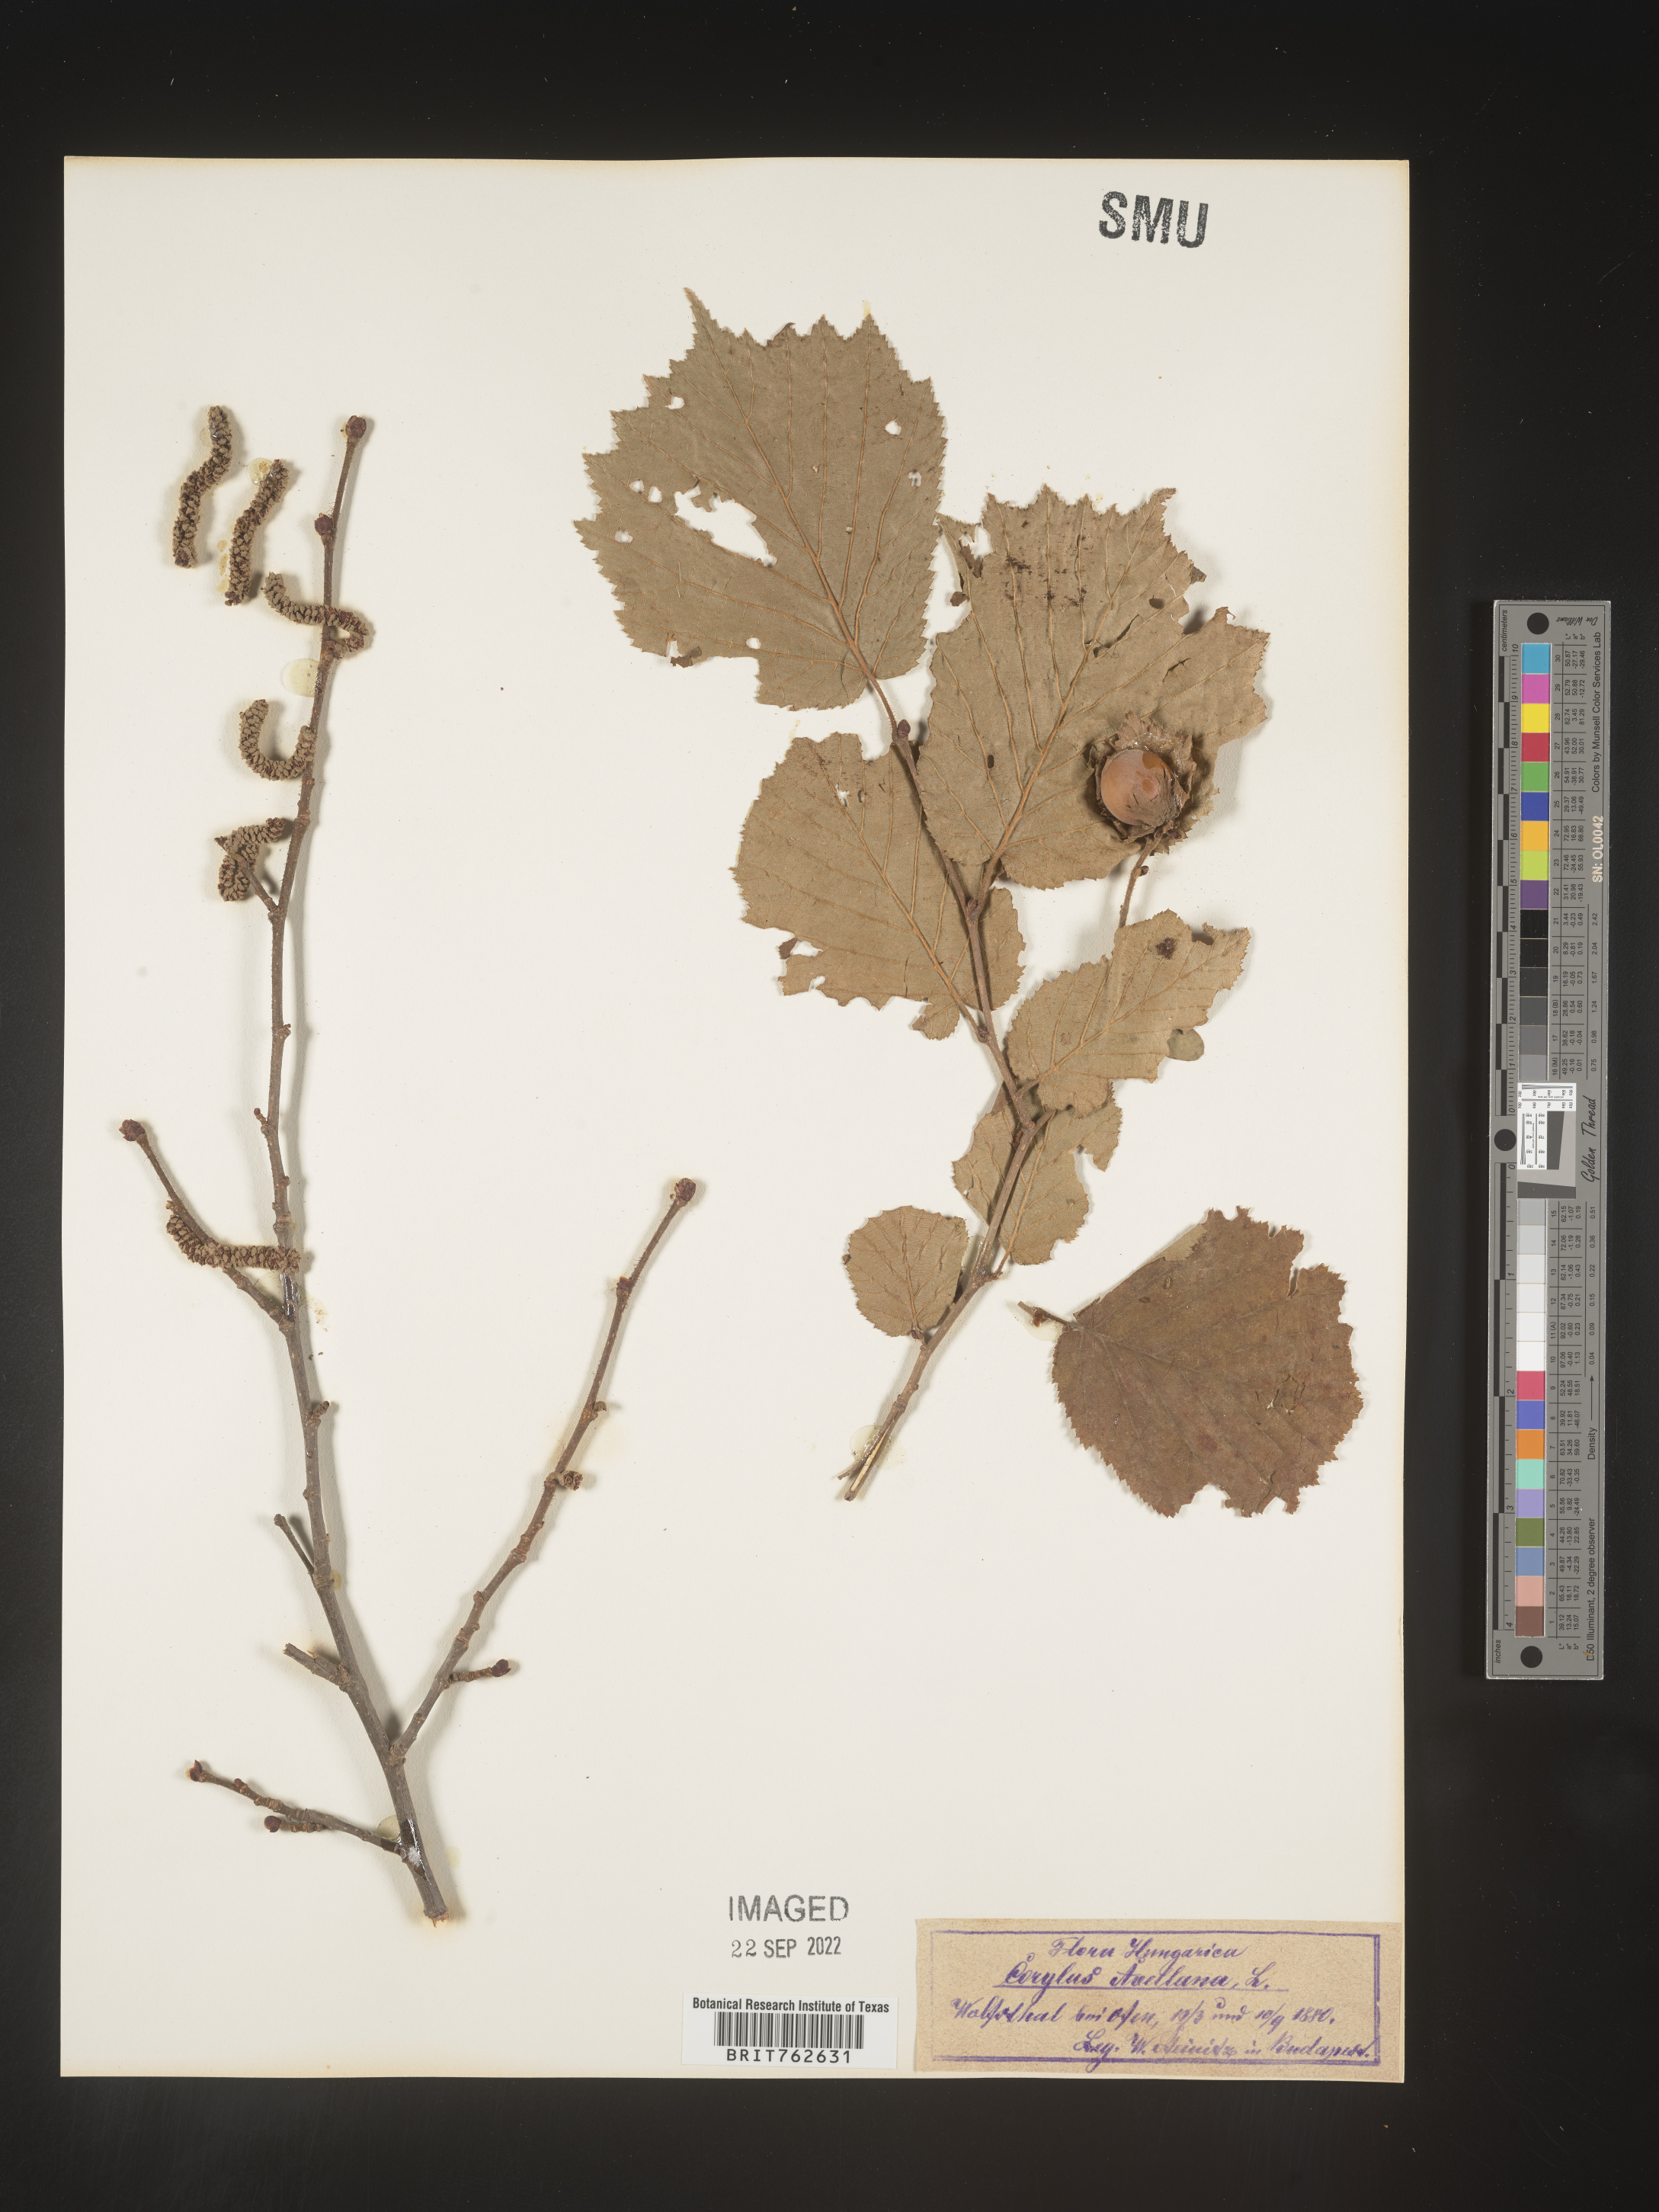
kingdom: Plantae
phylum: Tracheophyta
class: Magnoliopsida
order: Fagales
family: Betulaceae
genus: Corylus
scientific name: Corylus
